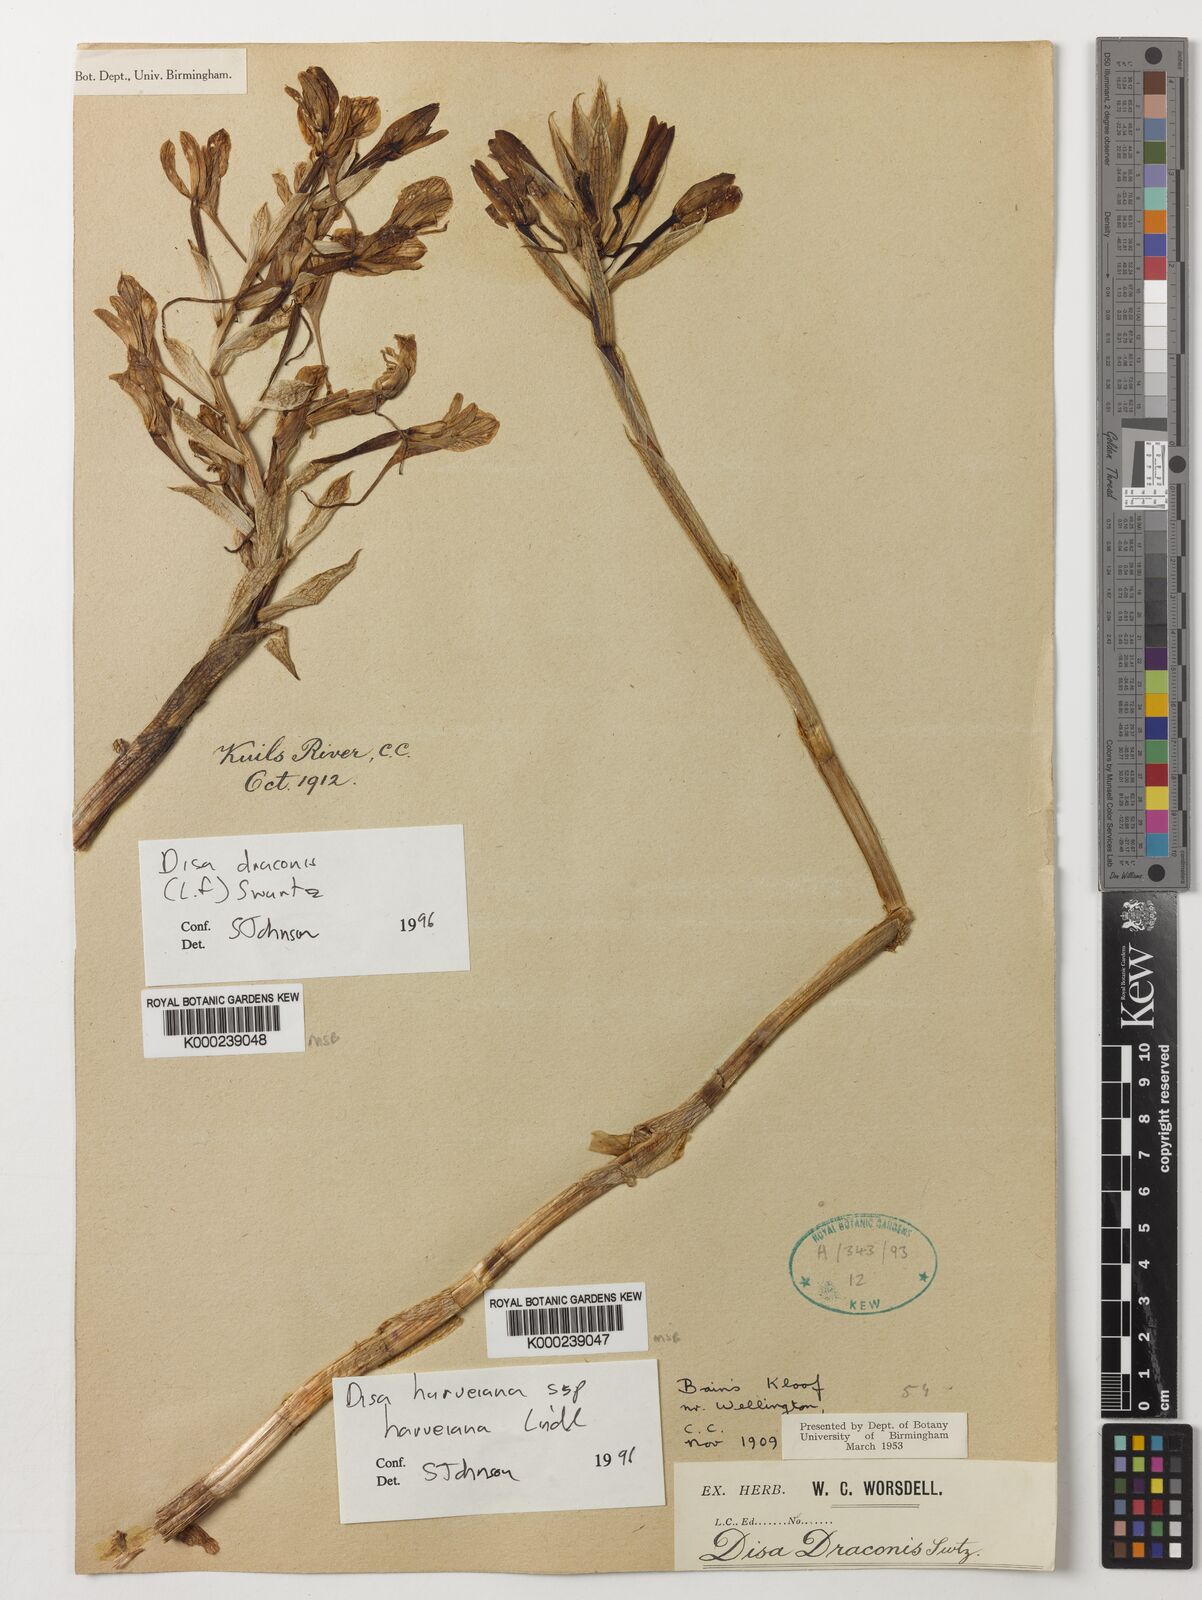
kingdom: Plantae
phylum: Tracheophyta
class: Liliopsida
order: Asparagales
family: Orchidaceae
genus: Disa
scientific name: Disa draconis
